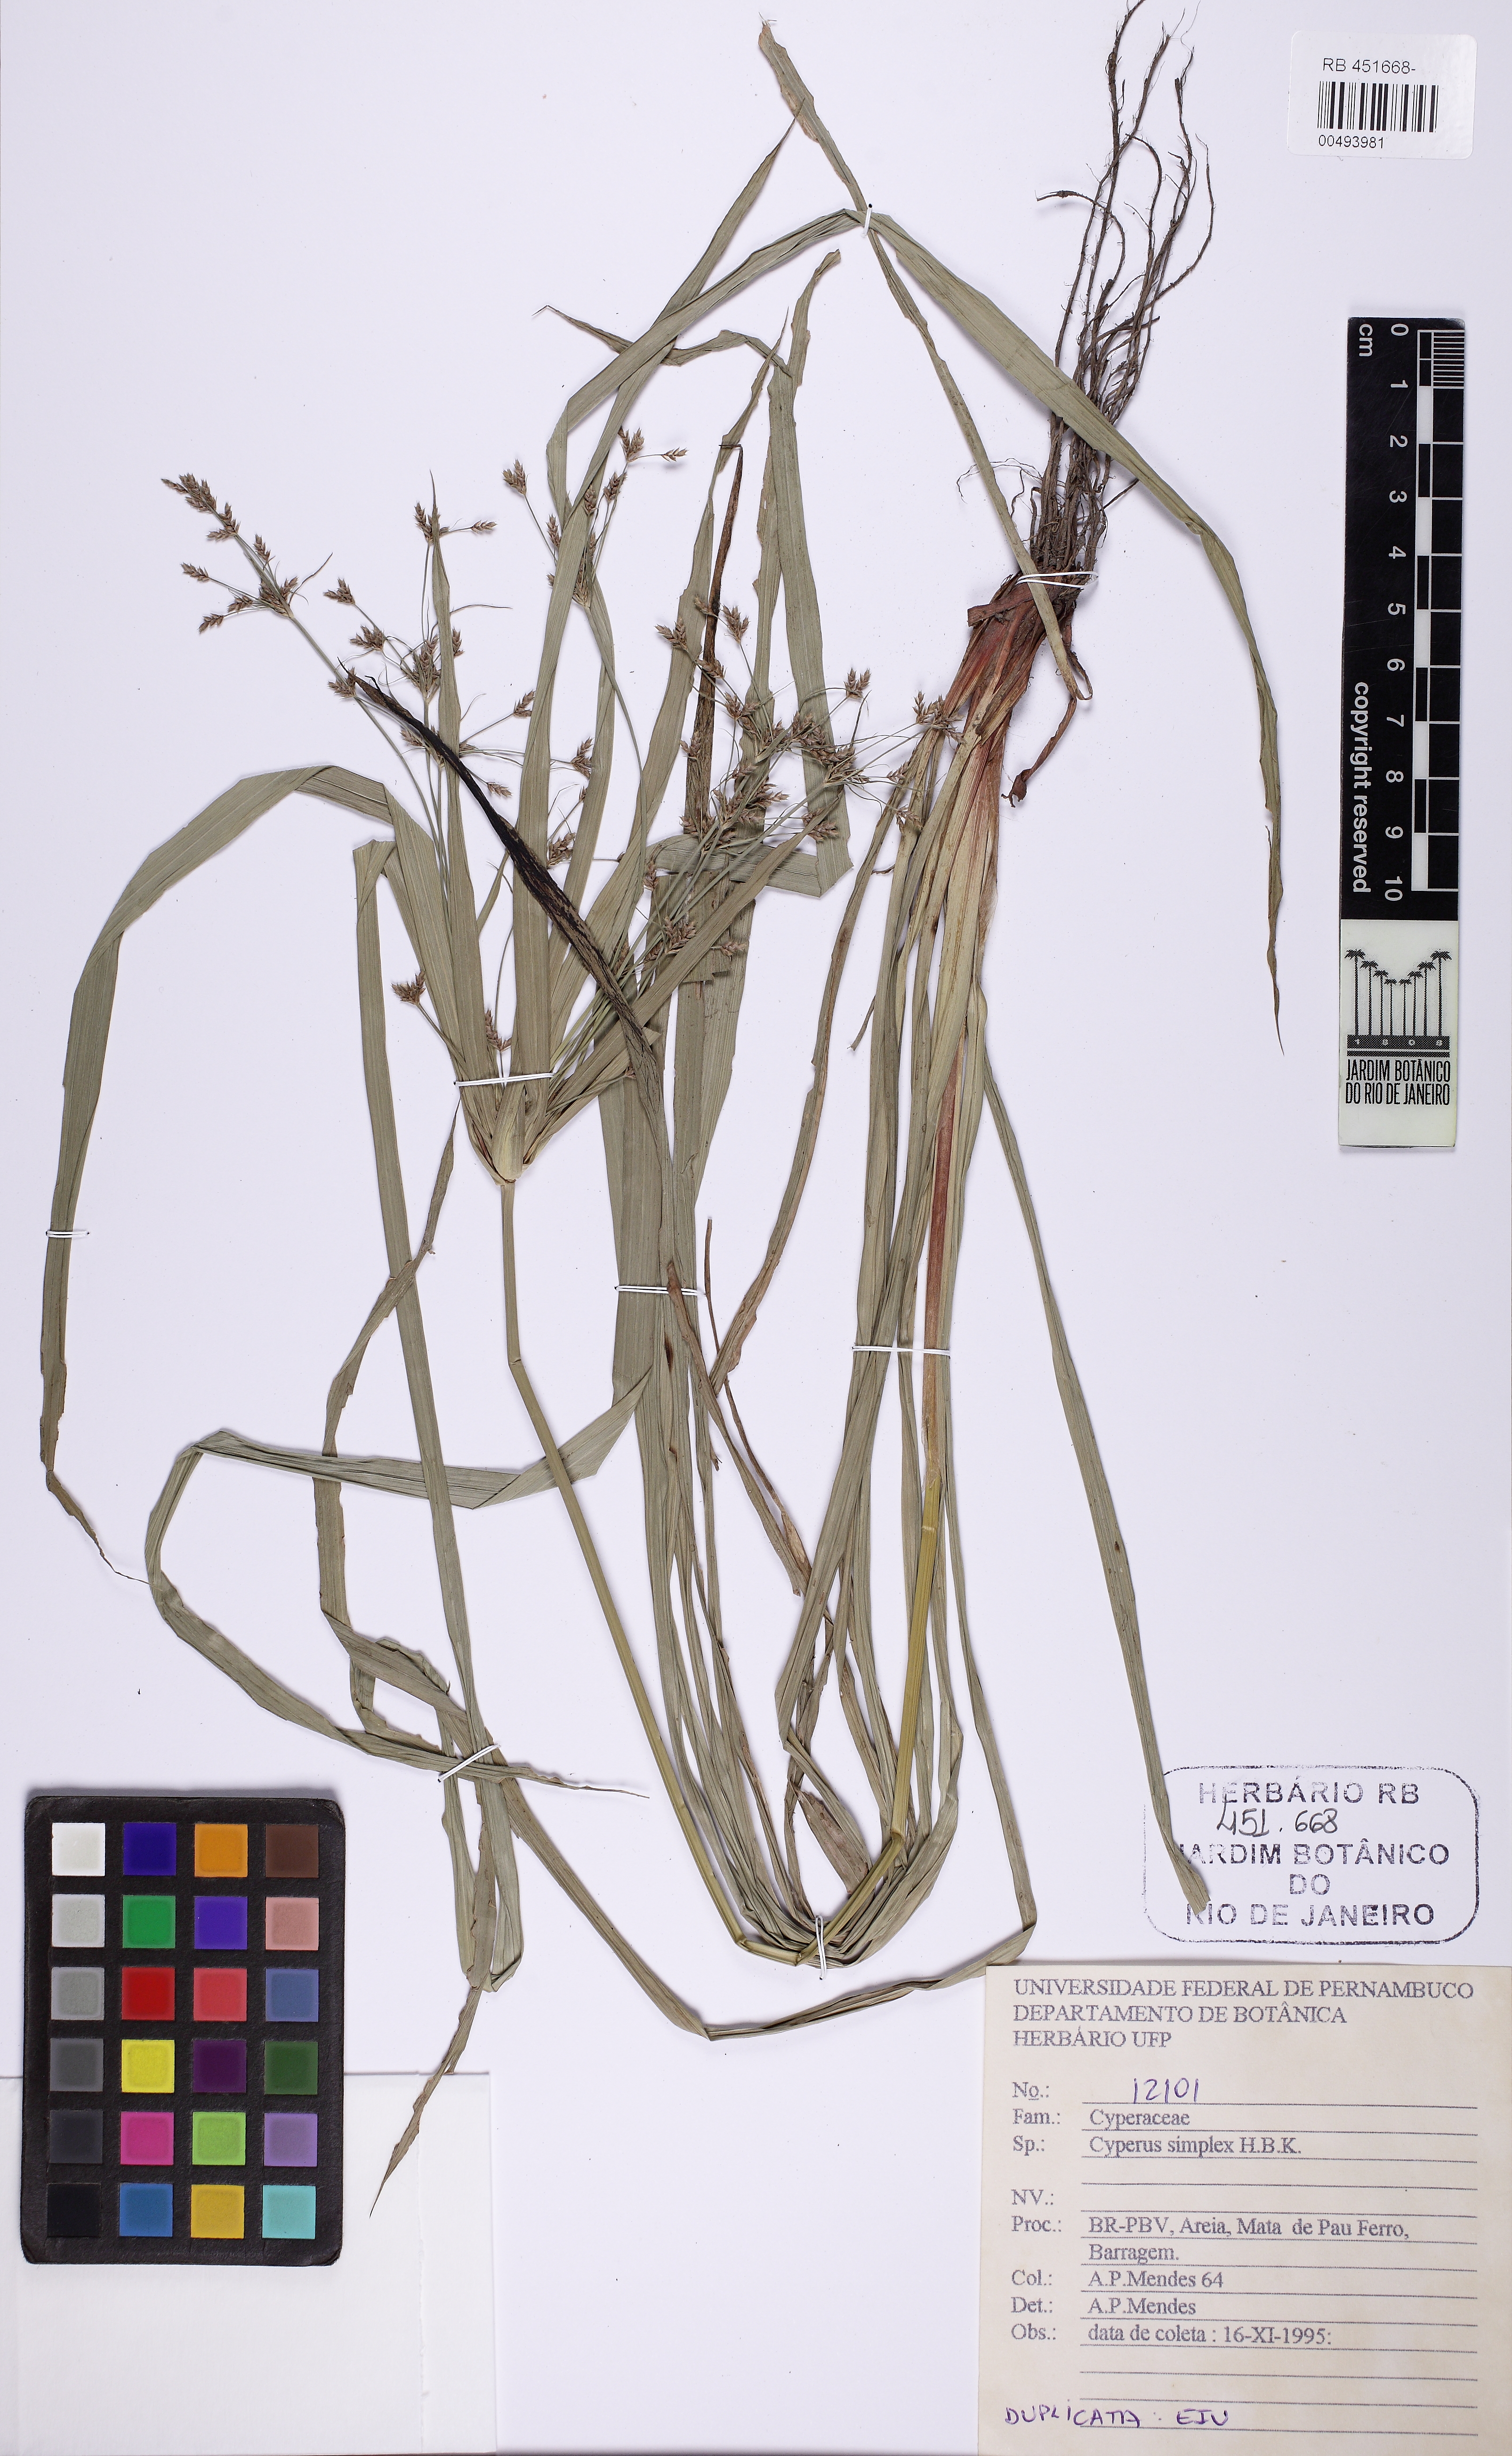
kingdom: Plantae
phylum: Tracheophyta
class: Liliopsida
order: Poales
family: Cyperaceae
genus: Cyperus
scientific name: Cyperus simplex
